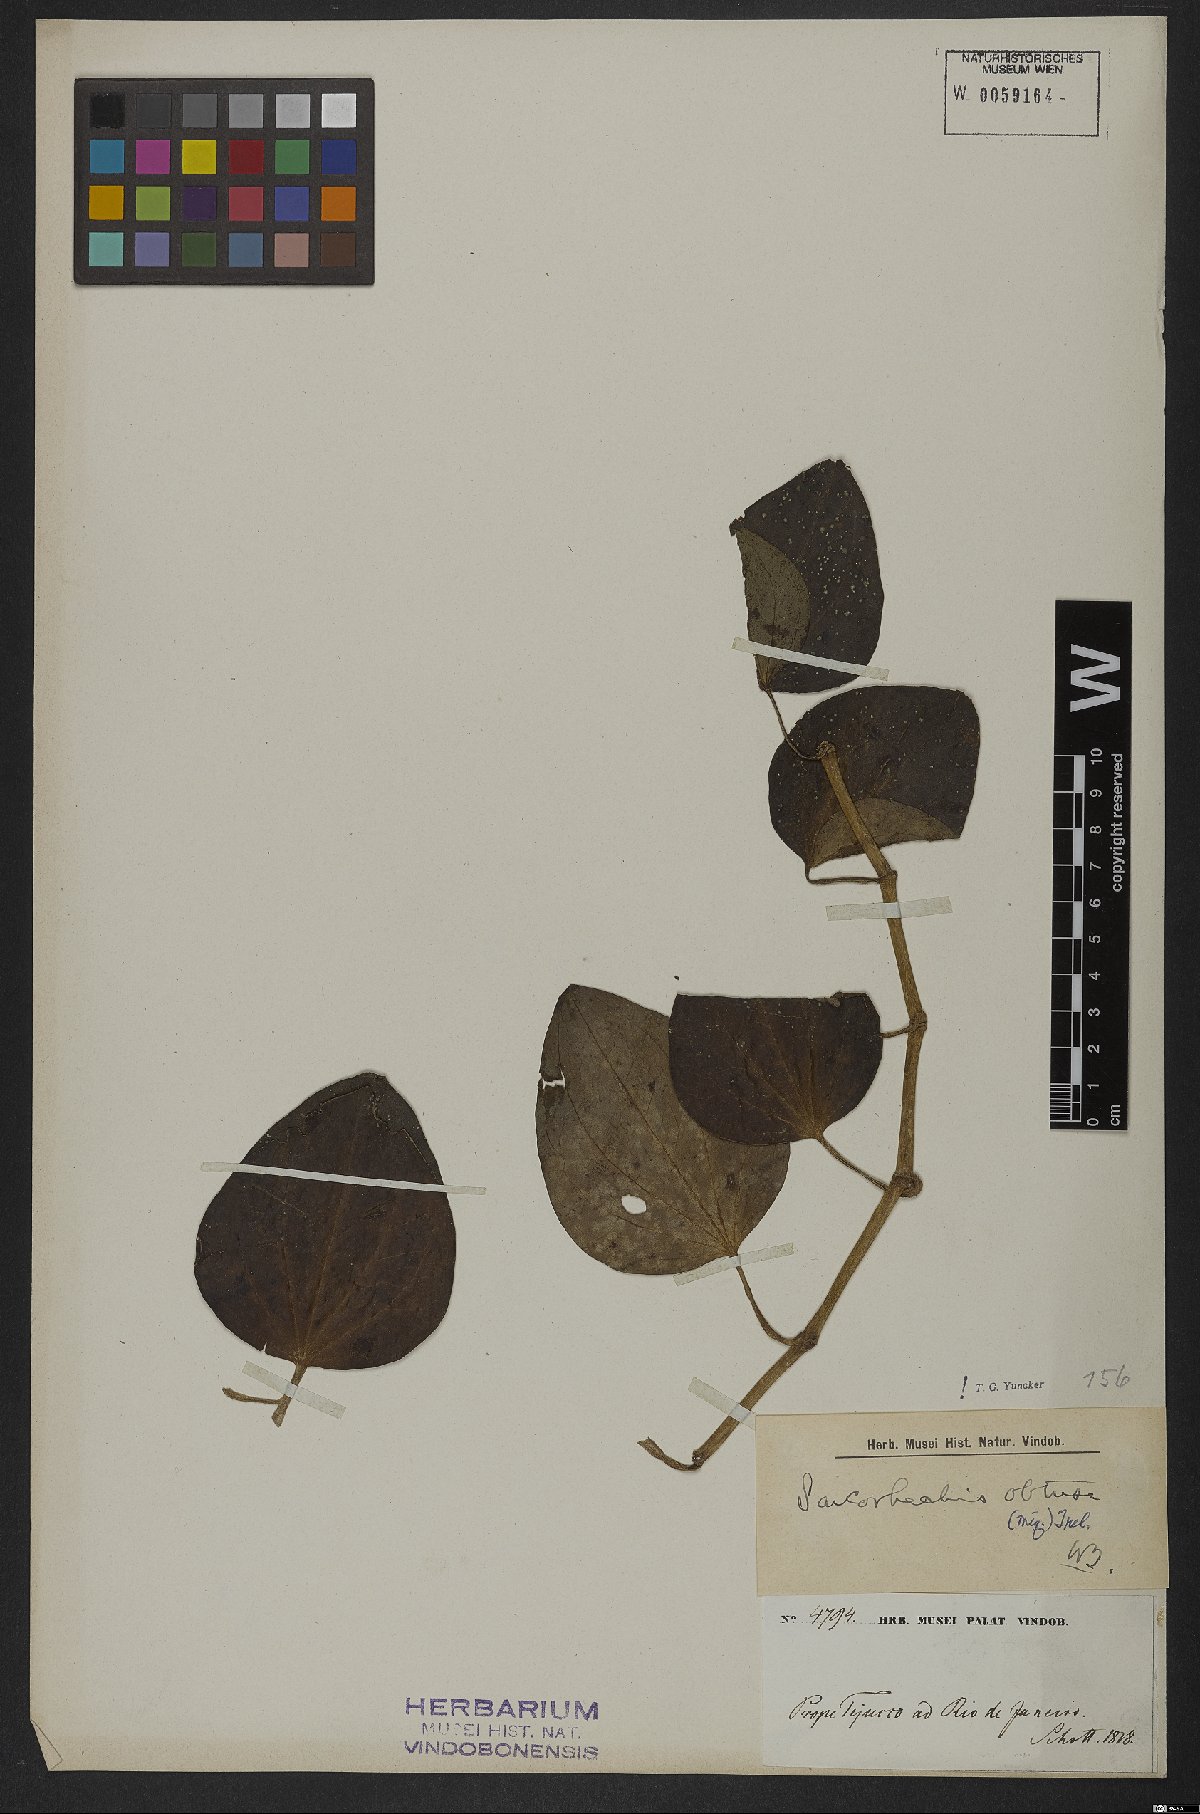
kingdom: Plantae
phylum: Tracheophyta
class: Magnoliopsida
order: Piperales
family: Piperaceae
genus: Manekia
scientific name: Manekia obtusa
